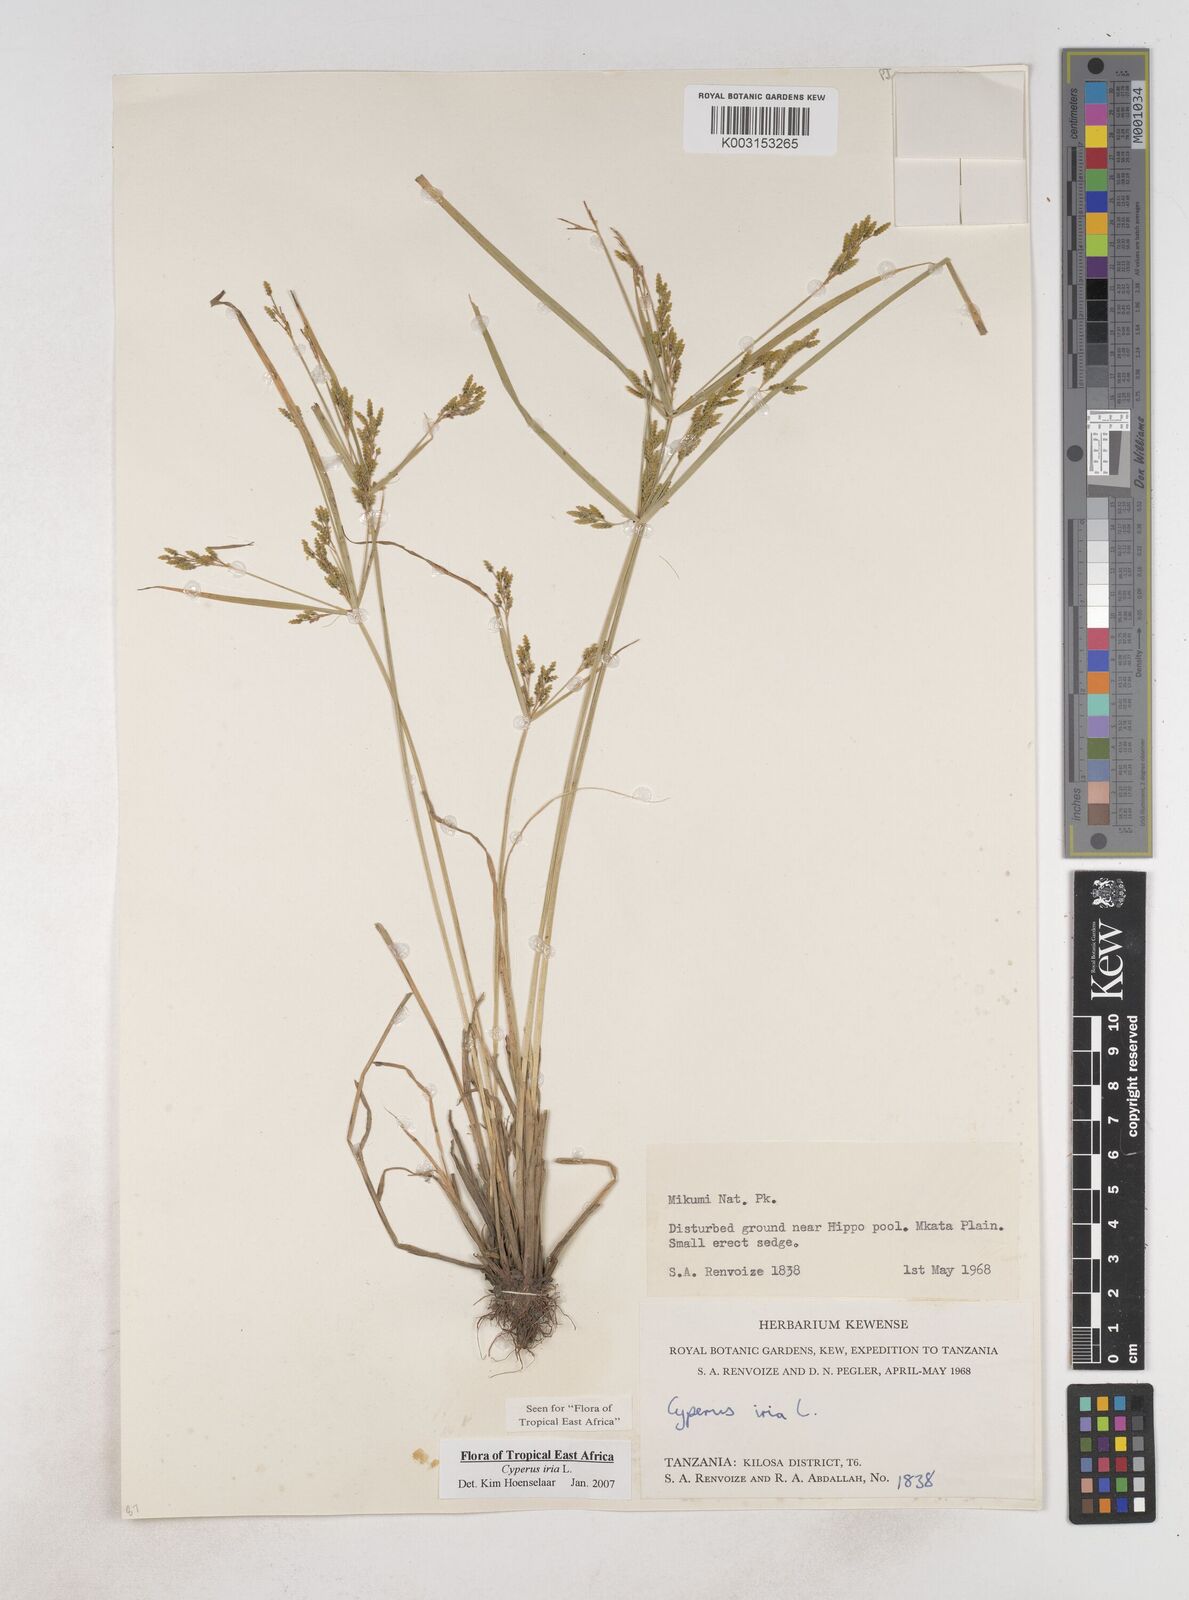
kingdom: Plantae
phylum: Tracheophyta
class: Liliopsida
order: Poales
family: Cyperaceae
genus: Cyperus
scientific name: Cyperus iria
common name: Ricefield flatsedge
